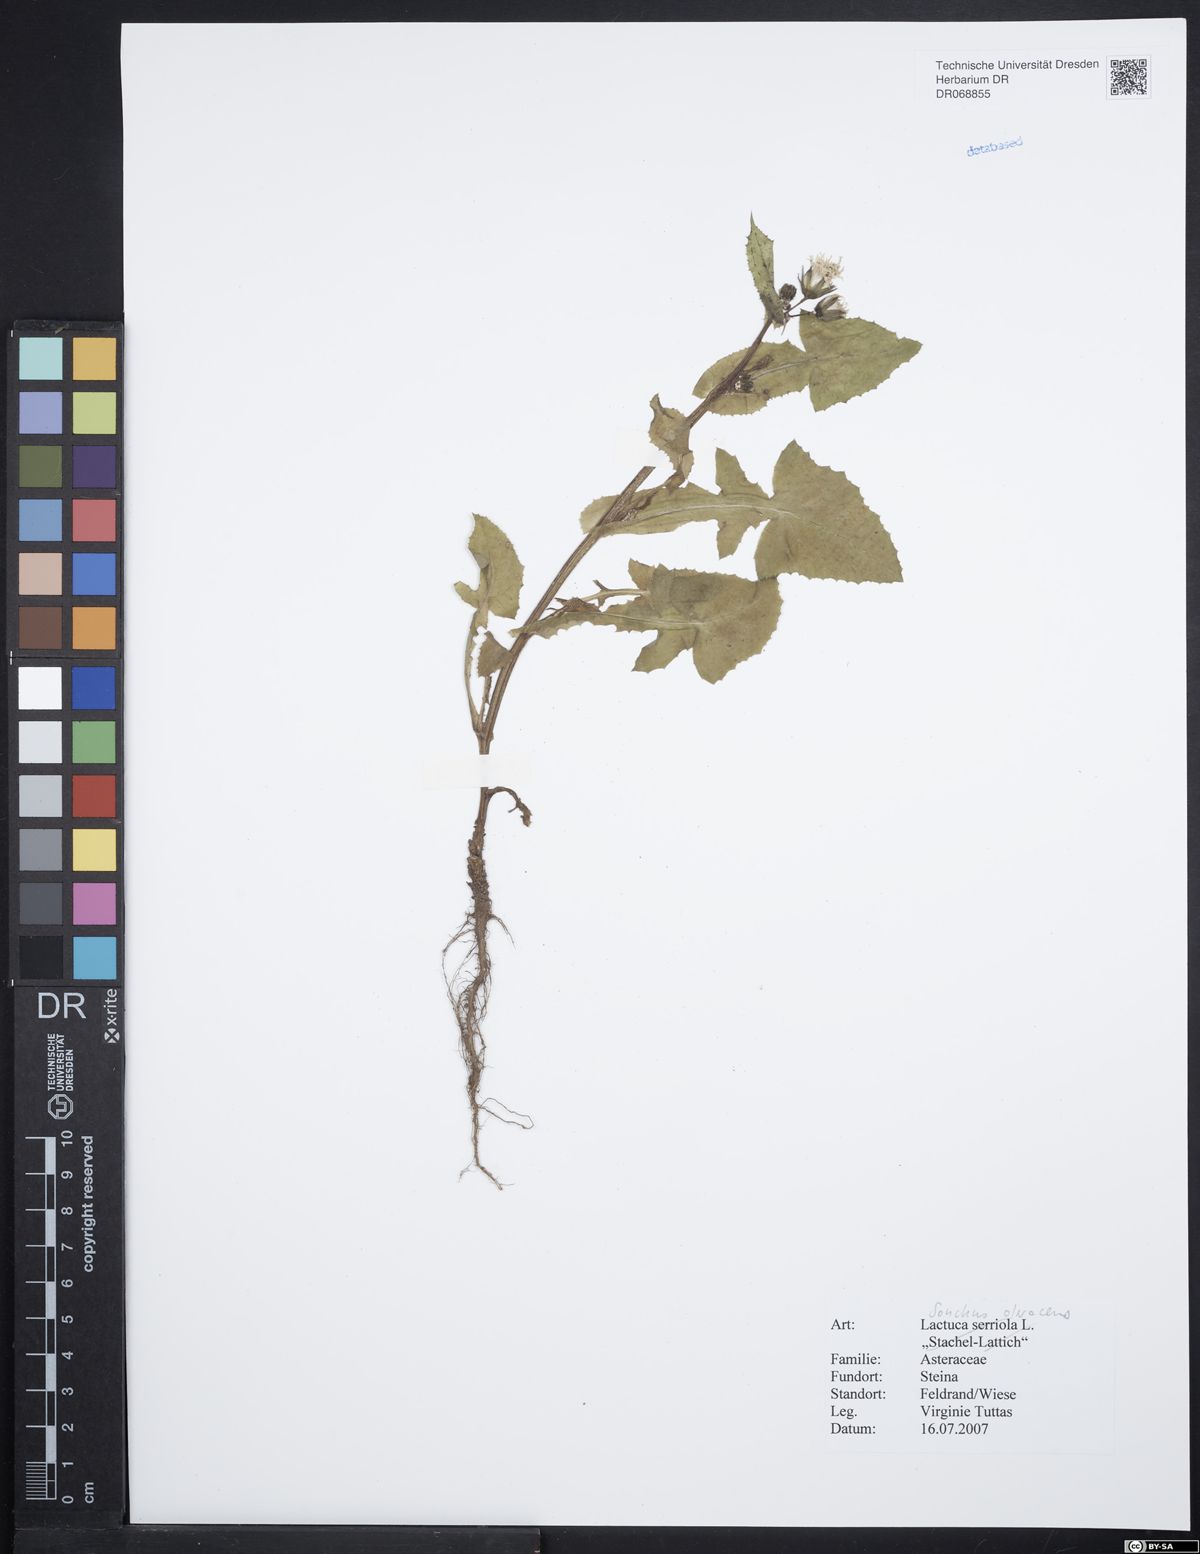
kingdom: Plantae
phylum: Tracheophyta
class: Magnoliopsida
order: Asterales
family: Asteraceae
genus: Sonchus
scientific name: Sonchus oleraceus
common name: Common sowthistle
